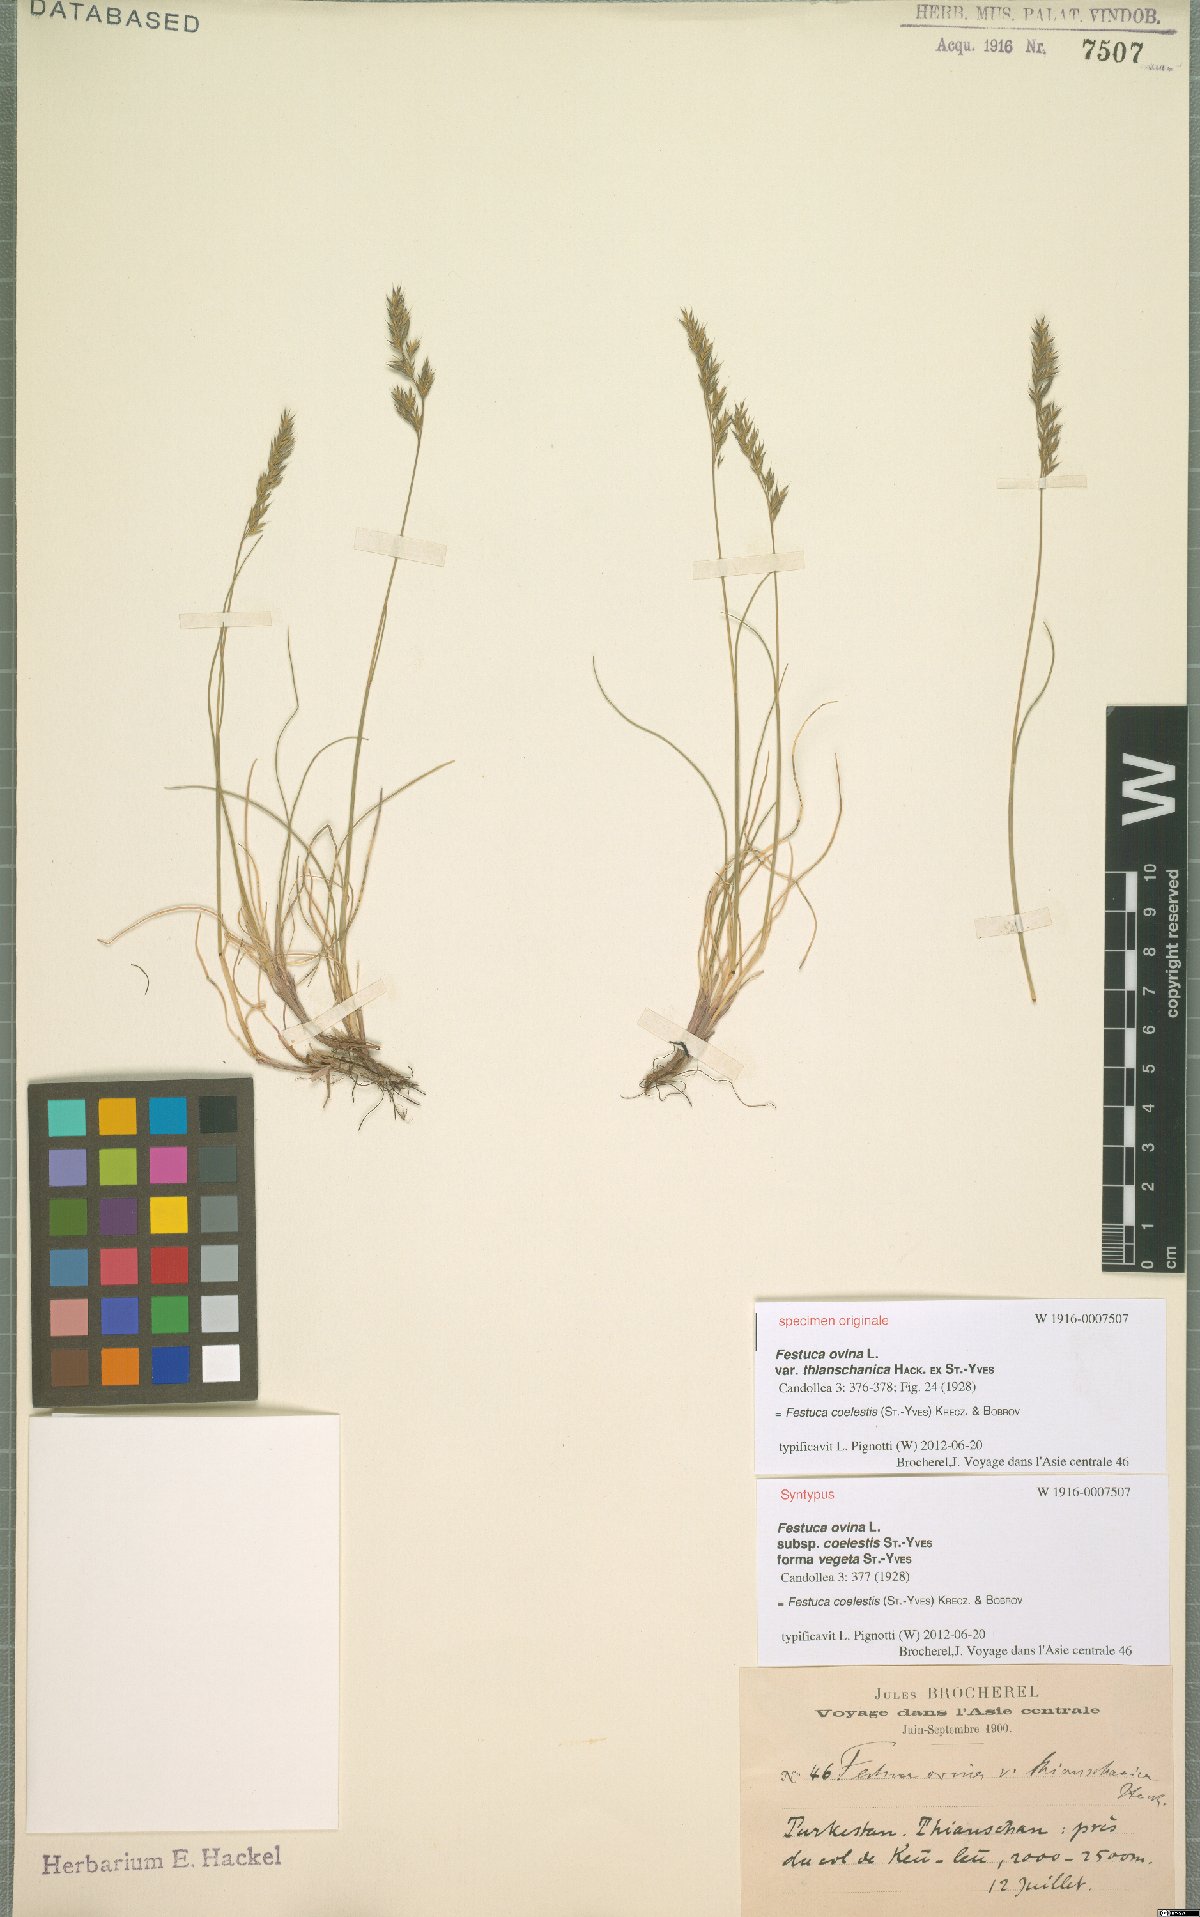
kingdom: Plantae
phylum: Tracheophyta
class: Liliopsida
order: Poales
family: Poaceae
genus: Festuca
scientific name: Festuca coelestis
